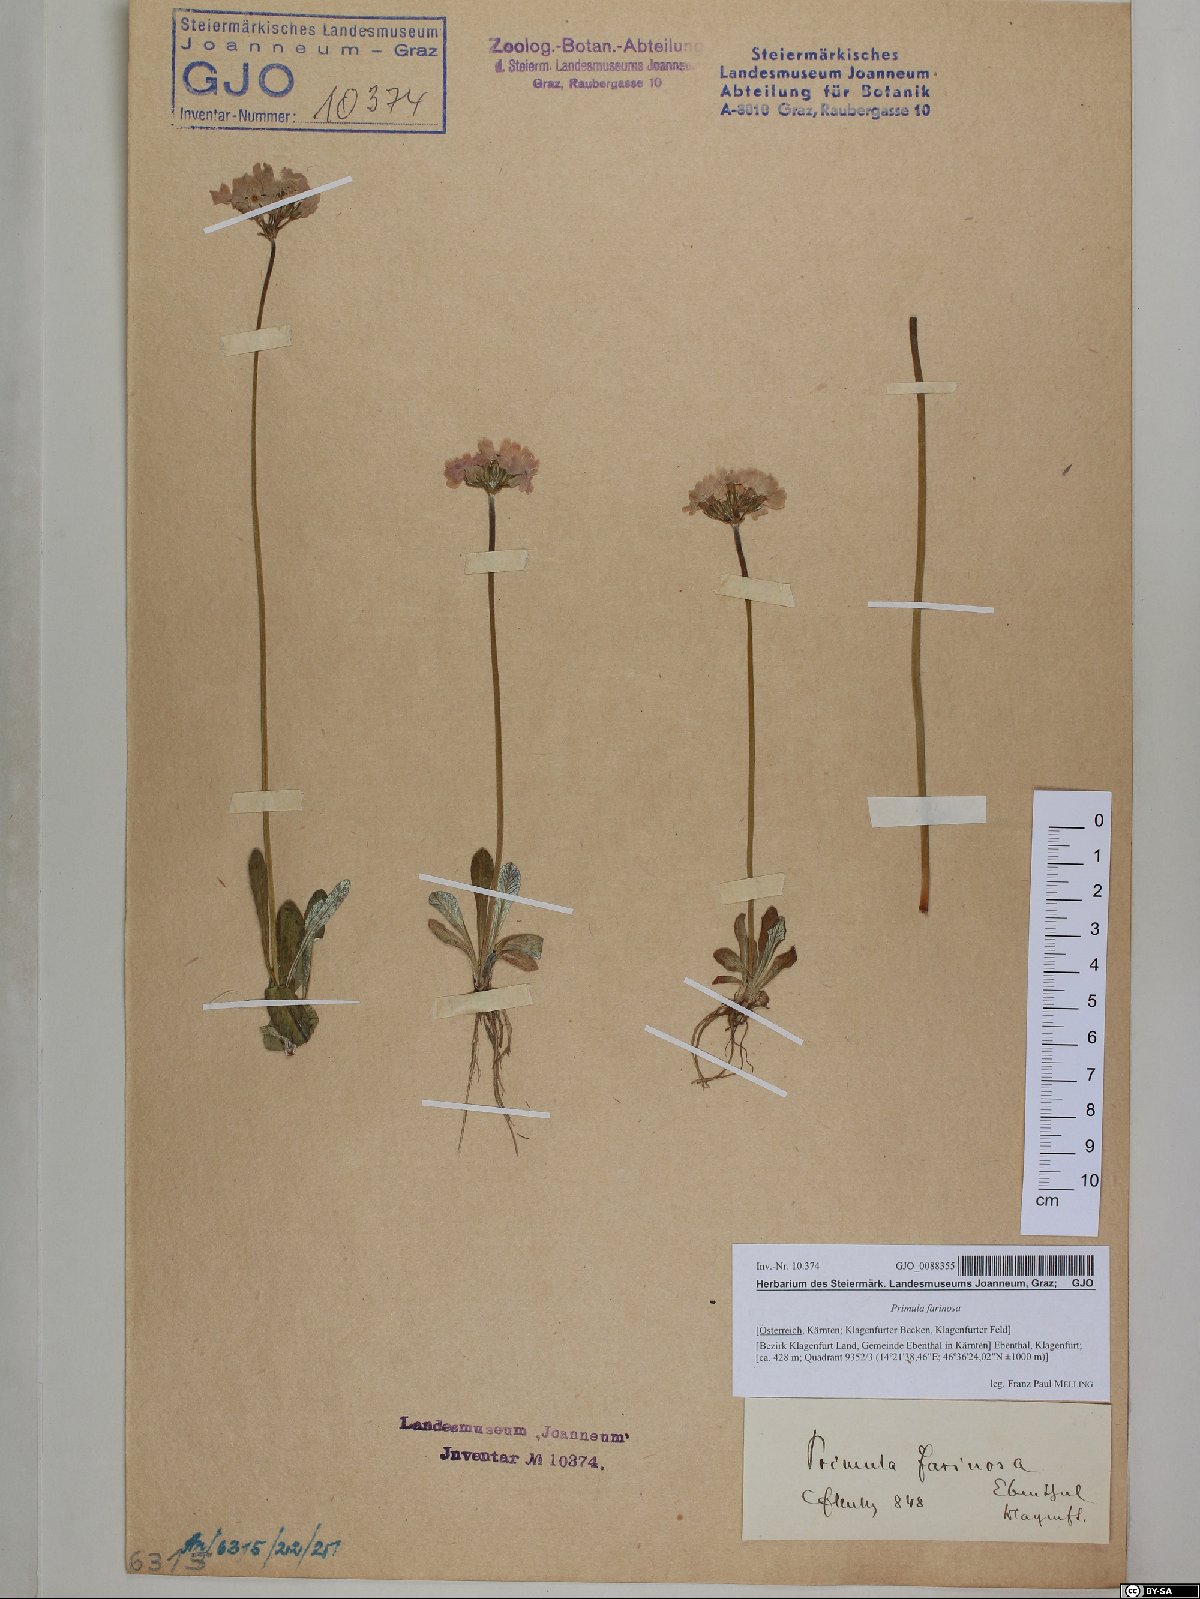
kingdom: Plantae
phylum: Tracheophyta
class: Magnoliopsida
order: Ericales
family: Primulaceae
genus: Primula
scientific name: Primula farinosa
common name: Bird's-eye primrose
